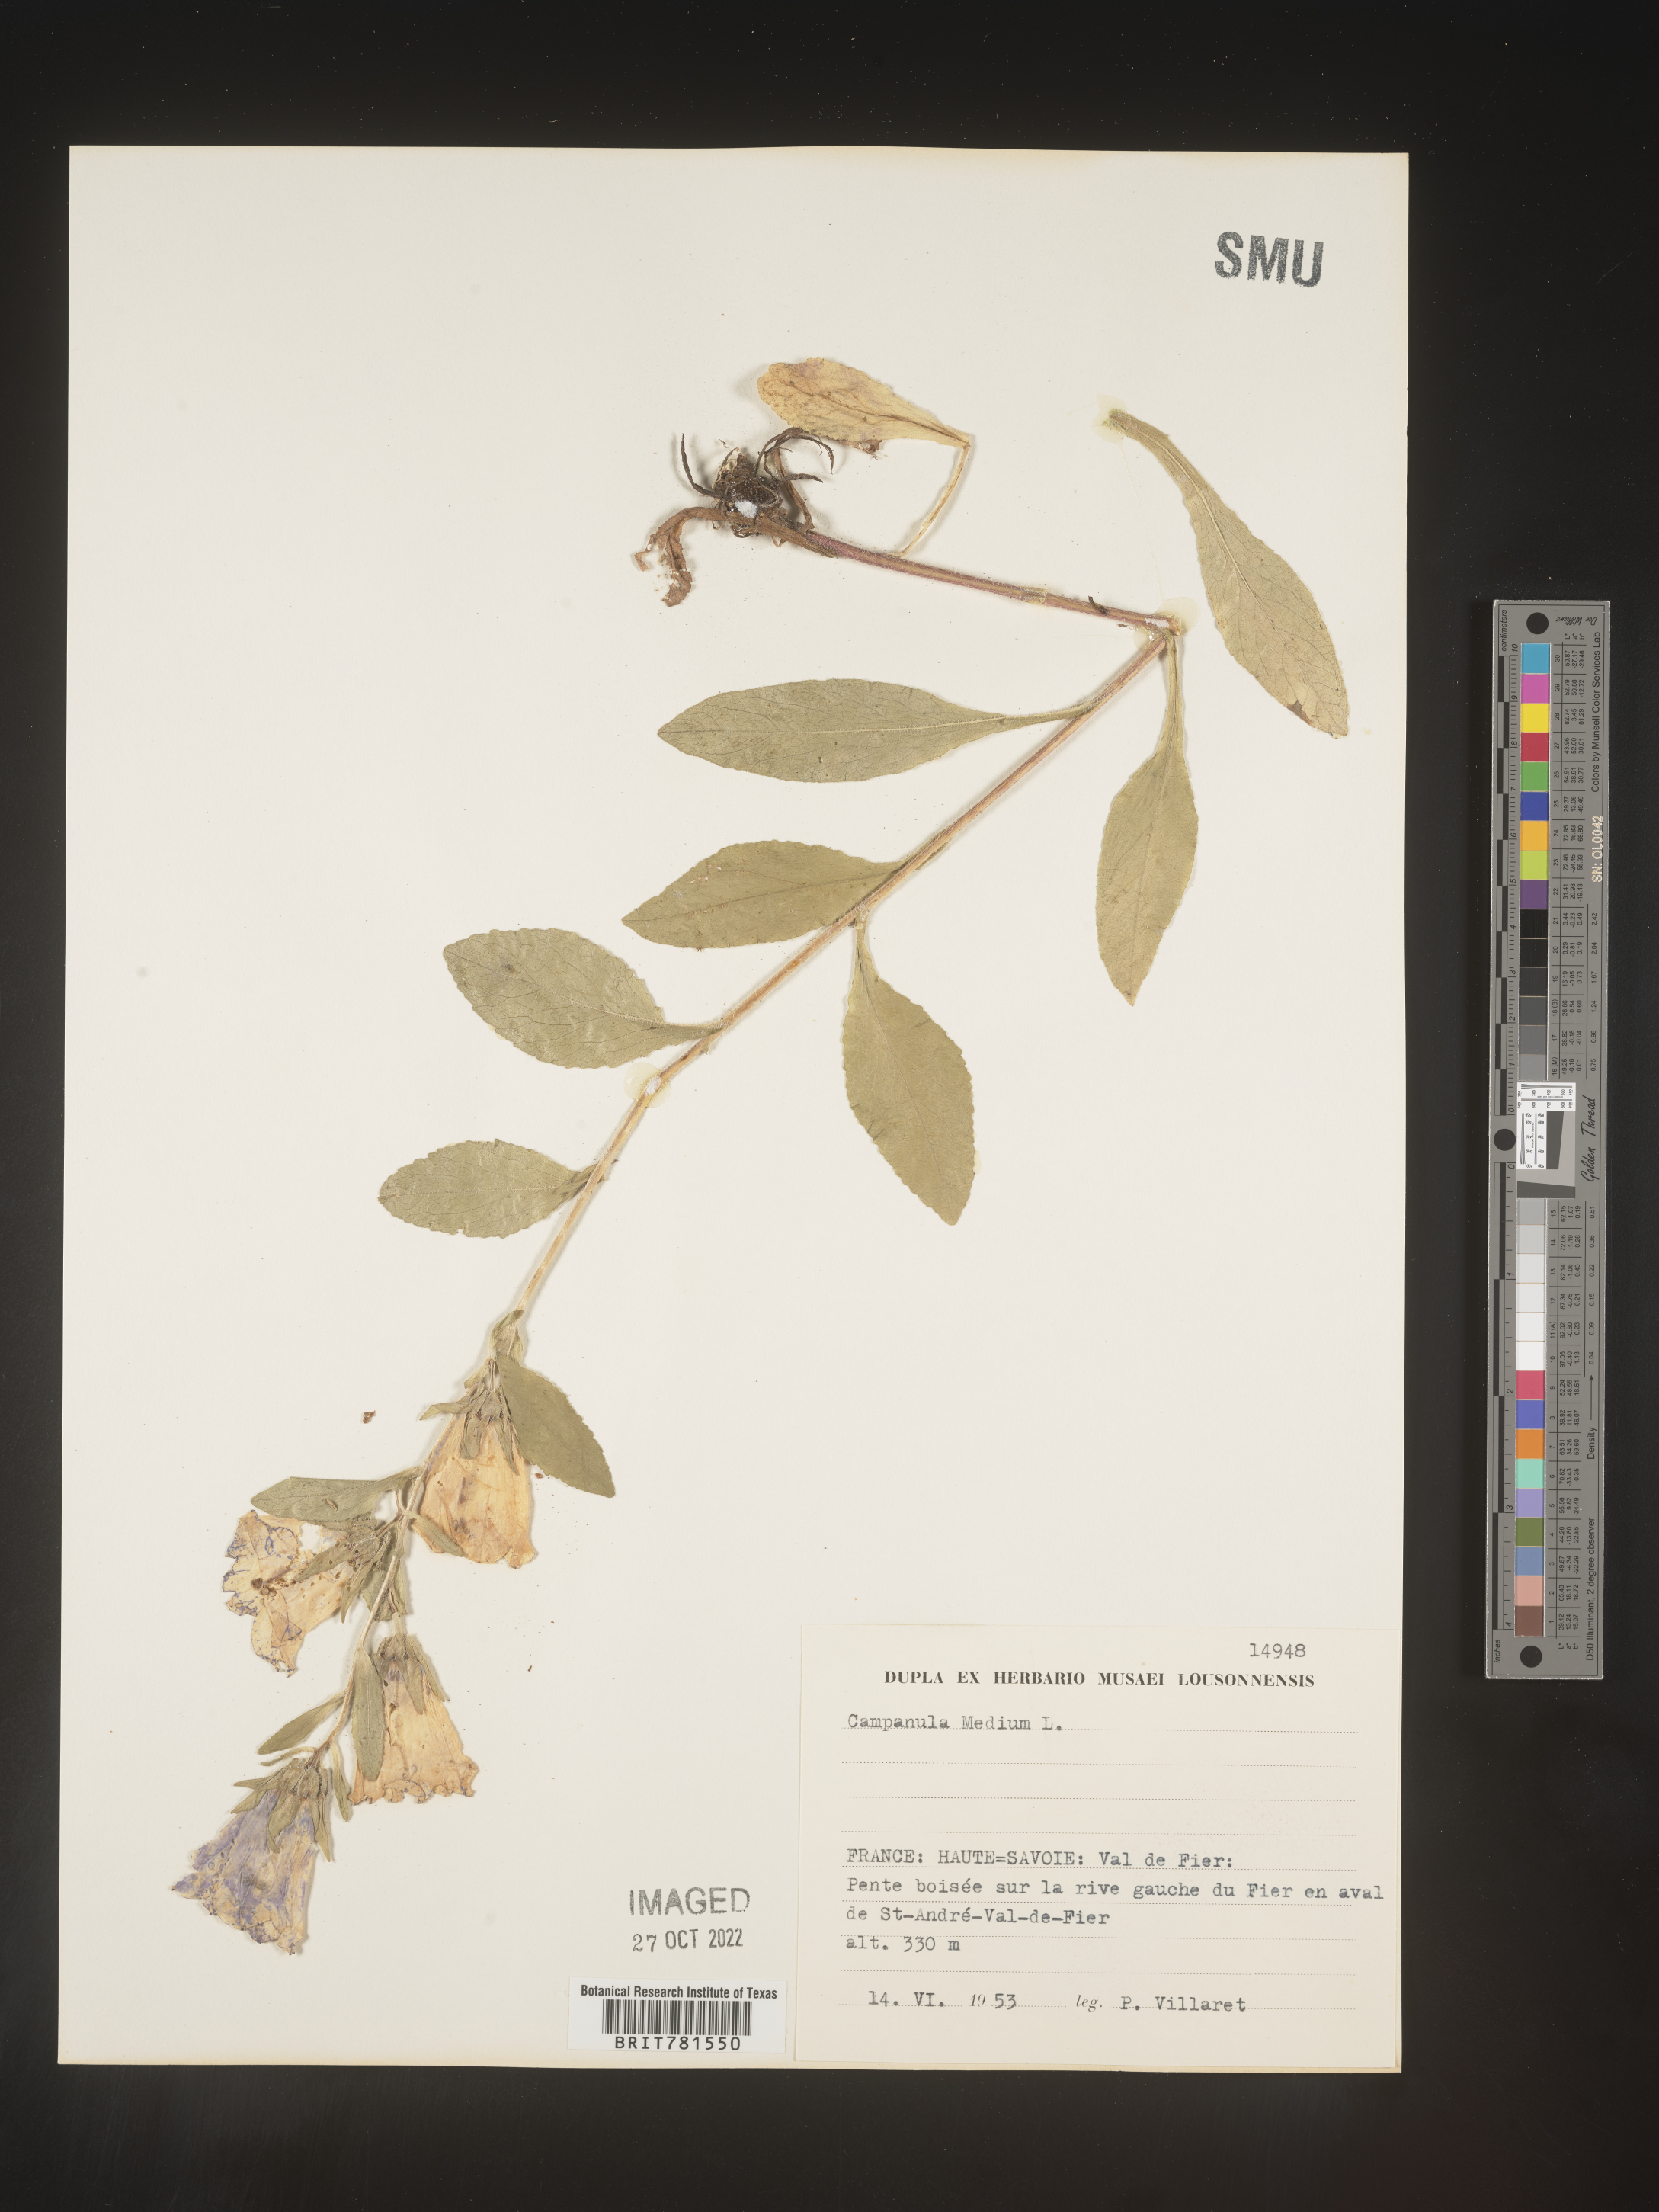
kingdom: Plantae
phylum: Tracheophyta
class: Magnoliopsida
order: Asterales
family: Campanulaceae
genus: Campanula
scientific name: Campanula
